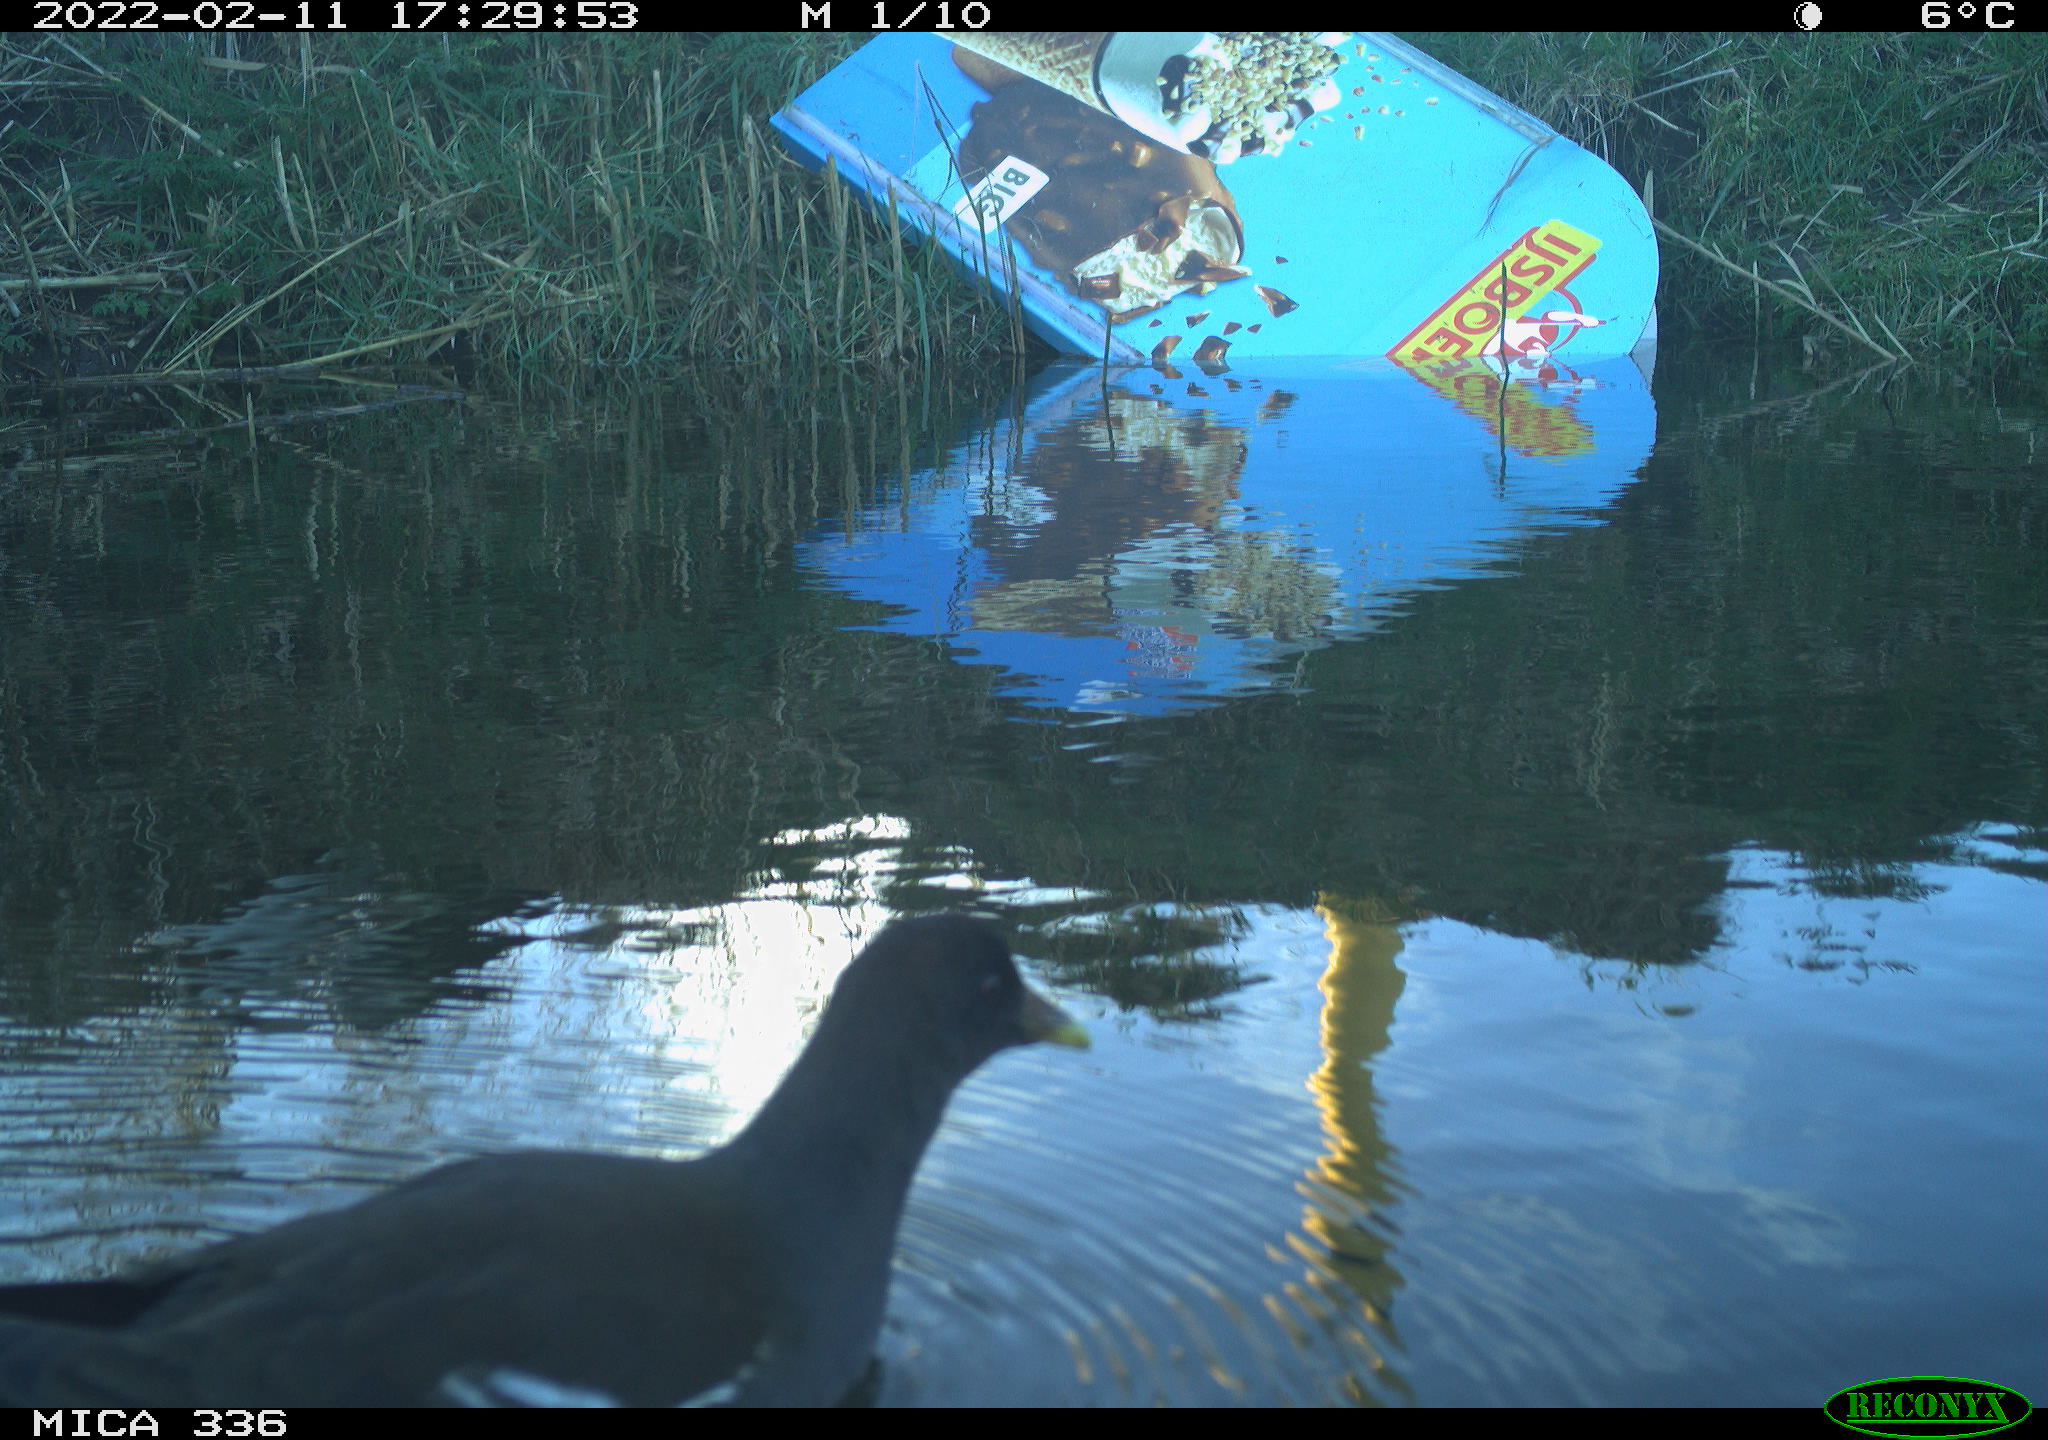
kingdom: Animalia
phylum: Chordata
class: Aves
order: Gruiformes
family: Rallidae
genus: Gallinula
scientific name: Gallinula chloropus
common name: Common moorhen
